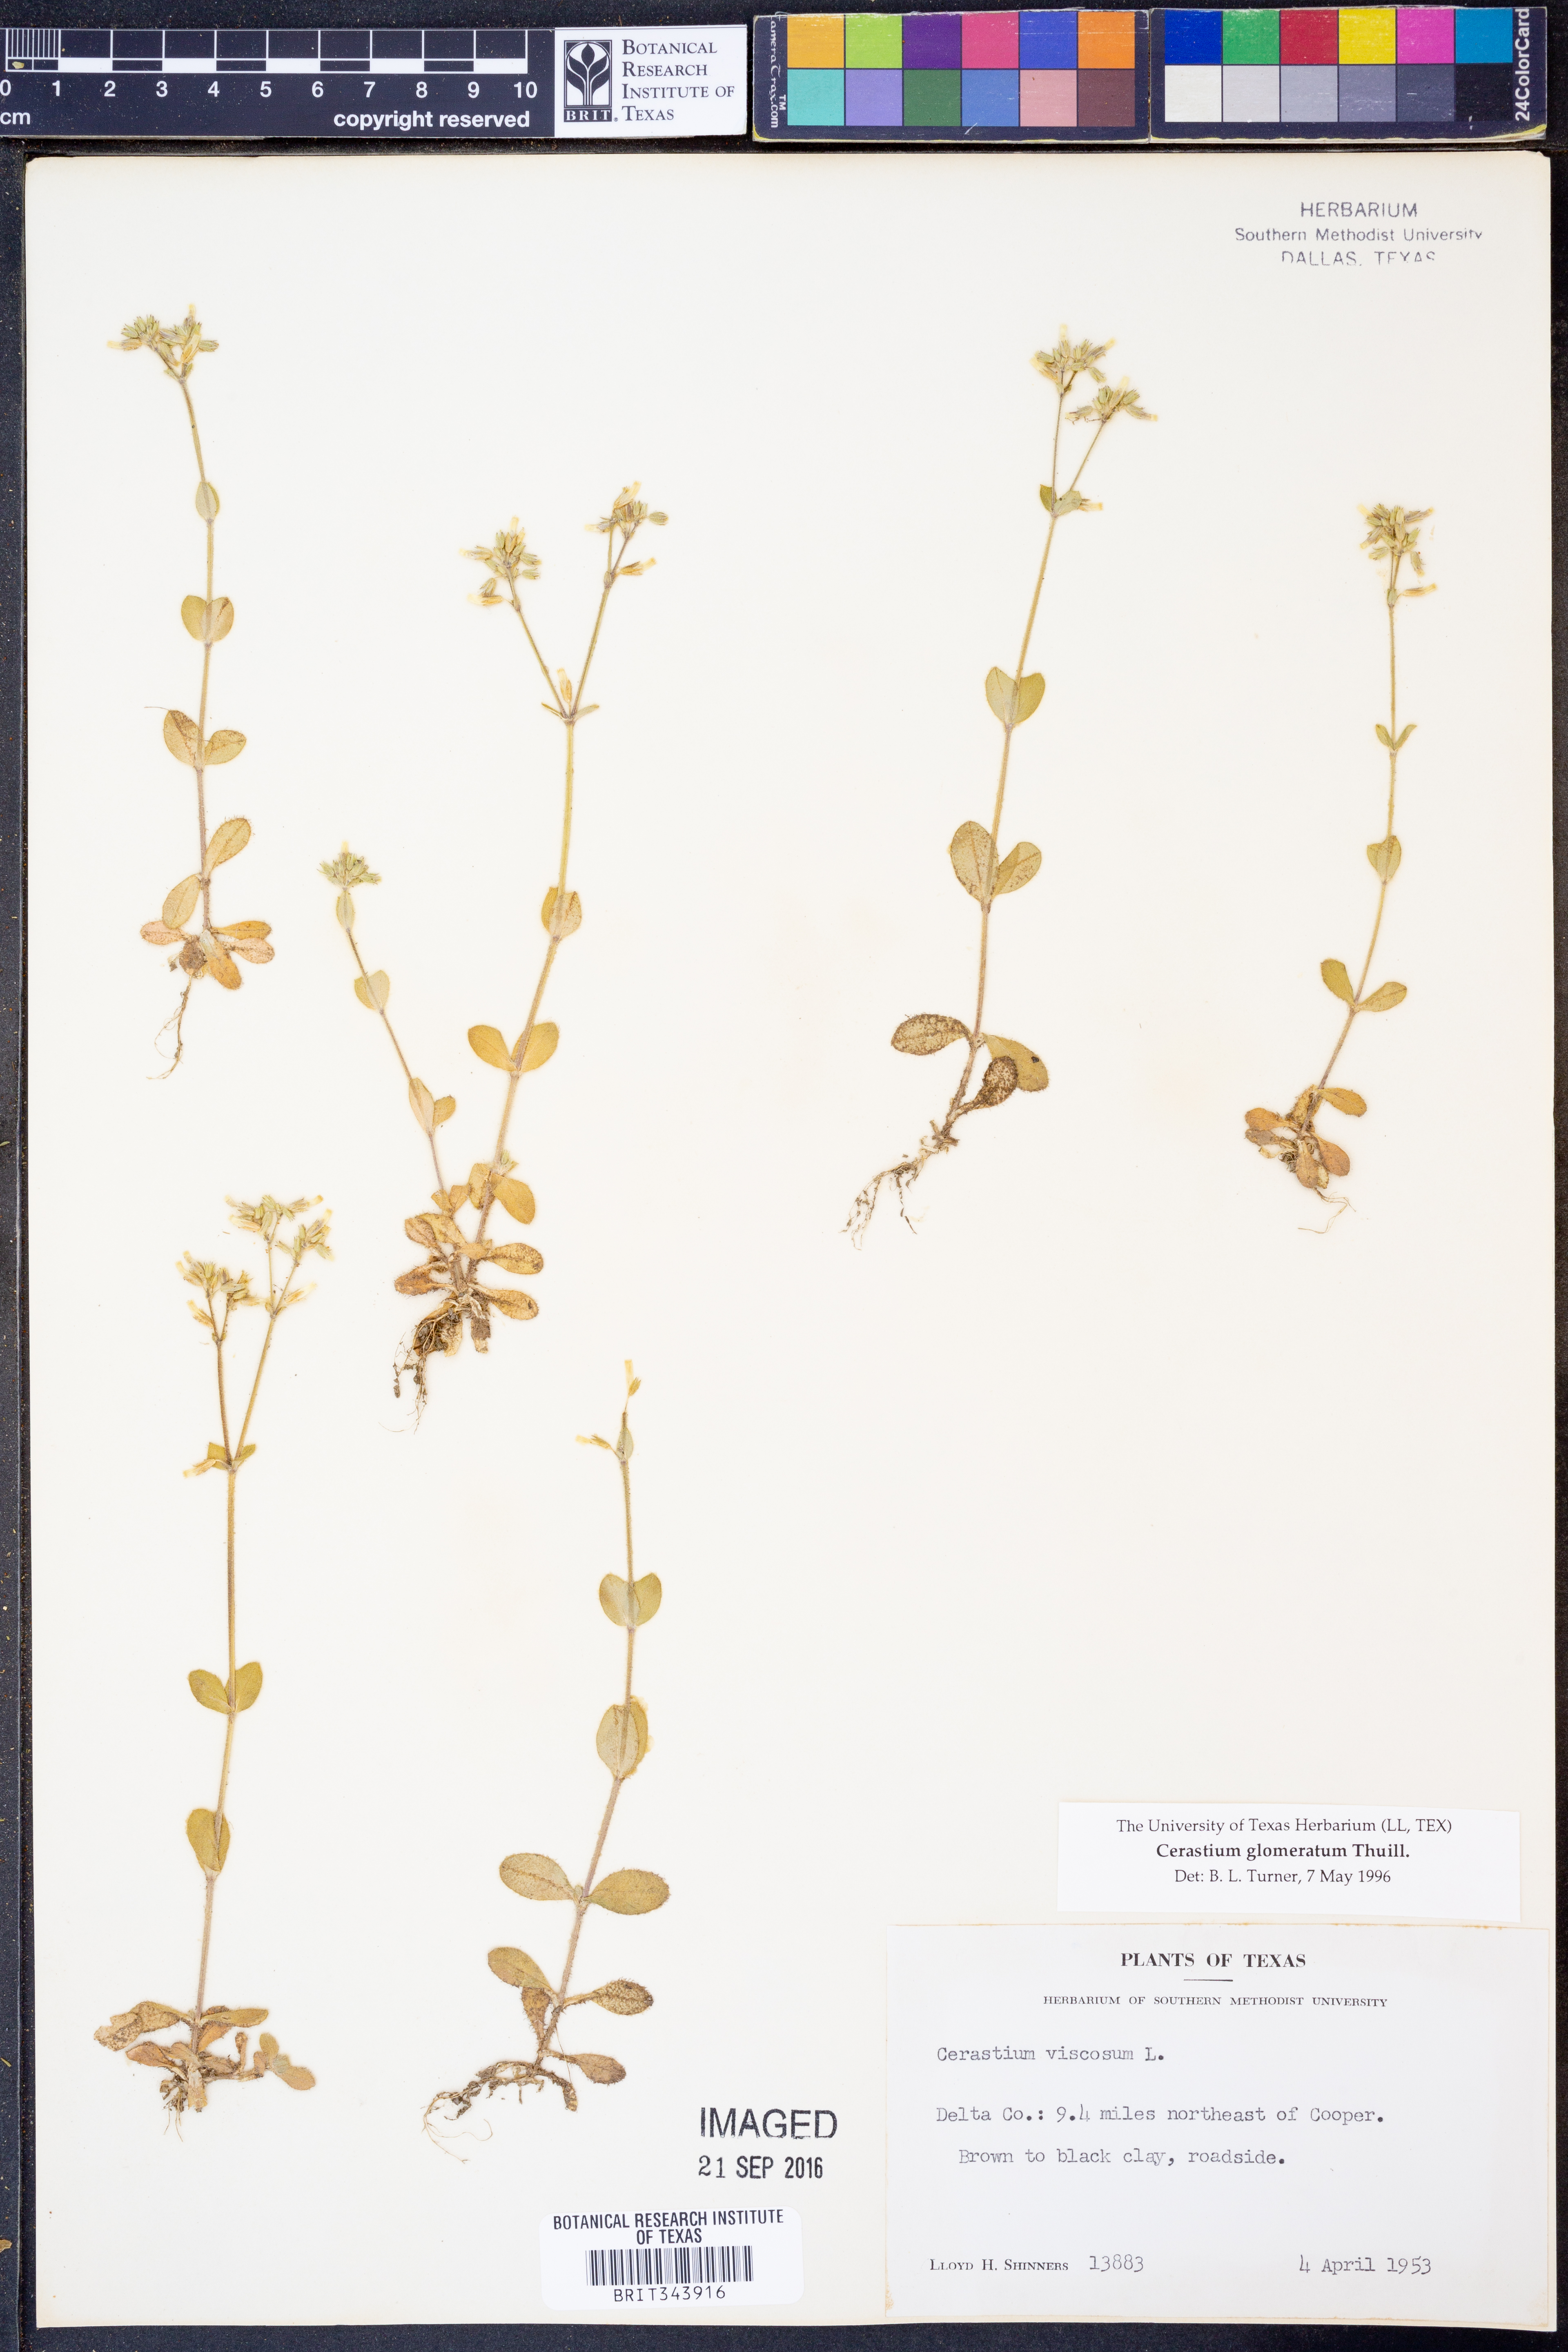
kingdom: Plantae
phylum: Tracheophyta
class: Magnoliopsida
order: Caryophyllales
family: Caryophyllaceae
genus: Cerastium
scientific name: Cerastium glomeratum
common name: Sticky chickweed
